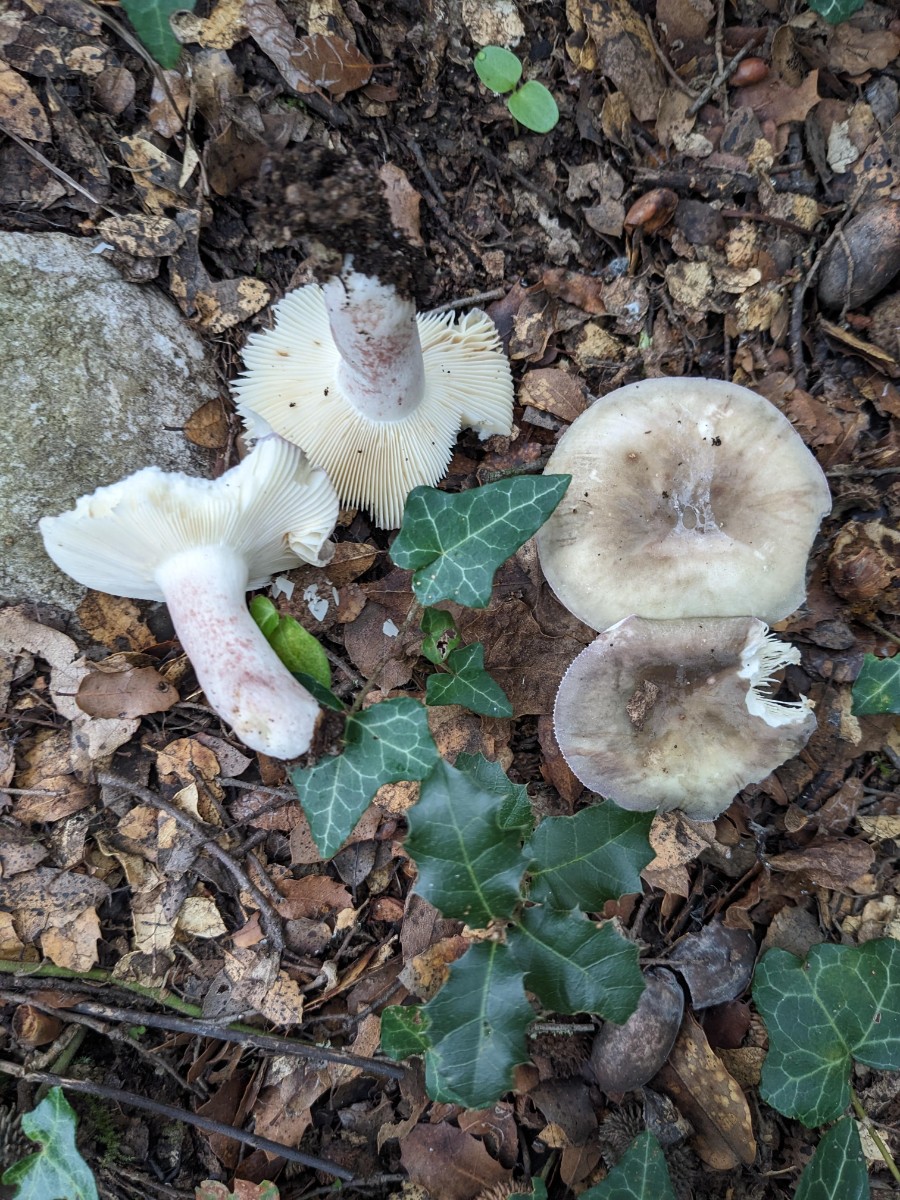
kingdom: Fungi
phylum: Basidiomycota
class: Agaricomycetes
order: Russulales
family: Russulaceae
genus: Russula
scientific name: Russula amoenicolor
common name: skønfodet skørhat
